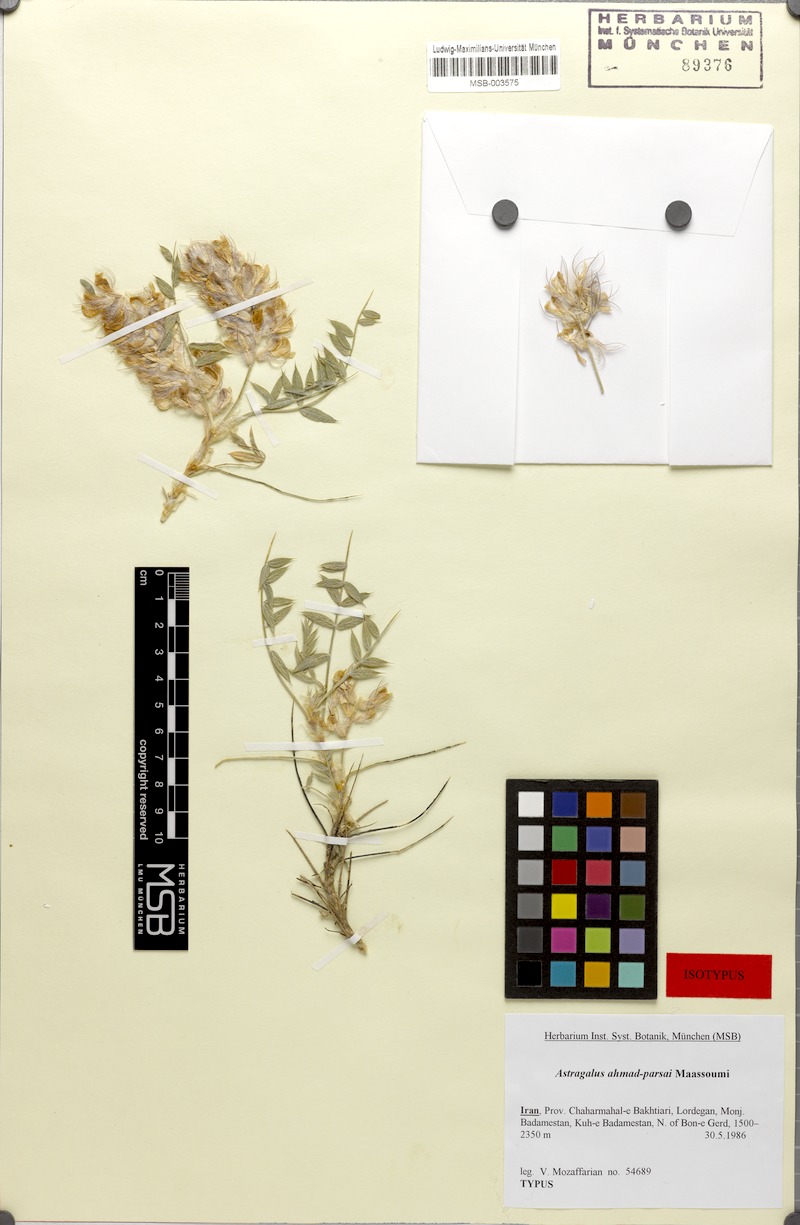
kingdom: Plantae
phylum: Tracheophyta
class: Magnoliopsida
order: Fabales
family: Fabaceae
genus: Astragalus
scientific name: Astragalus ahmad-parsae
